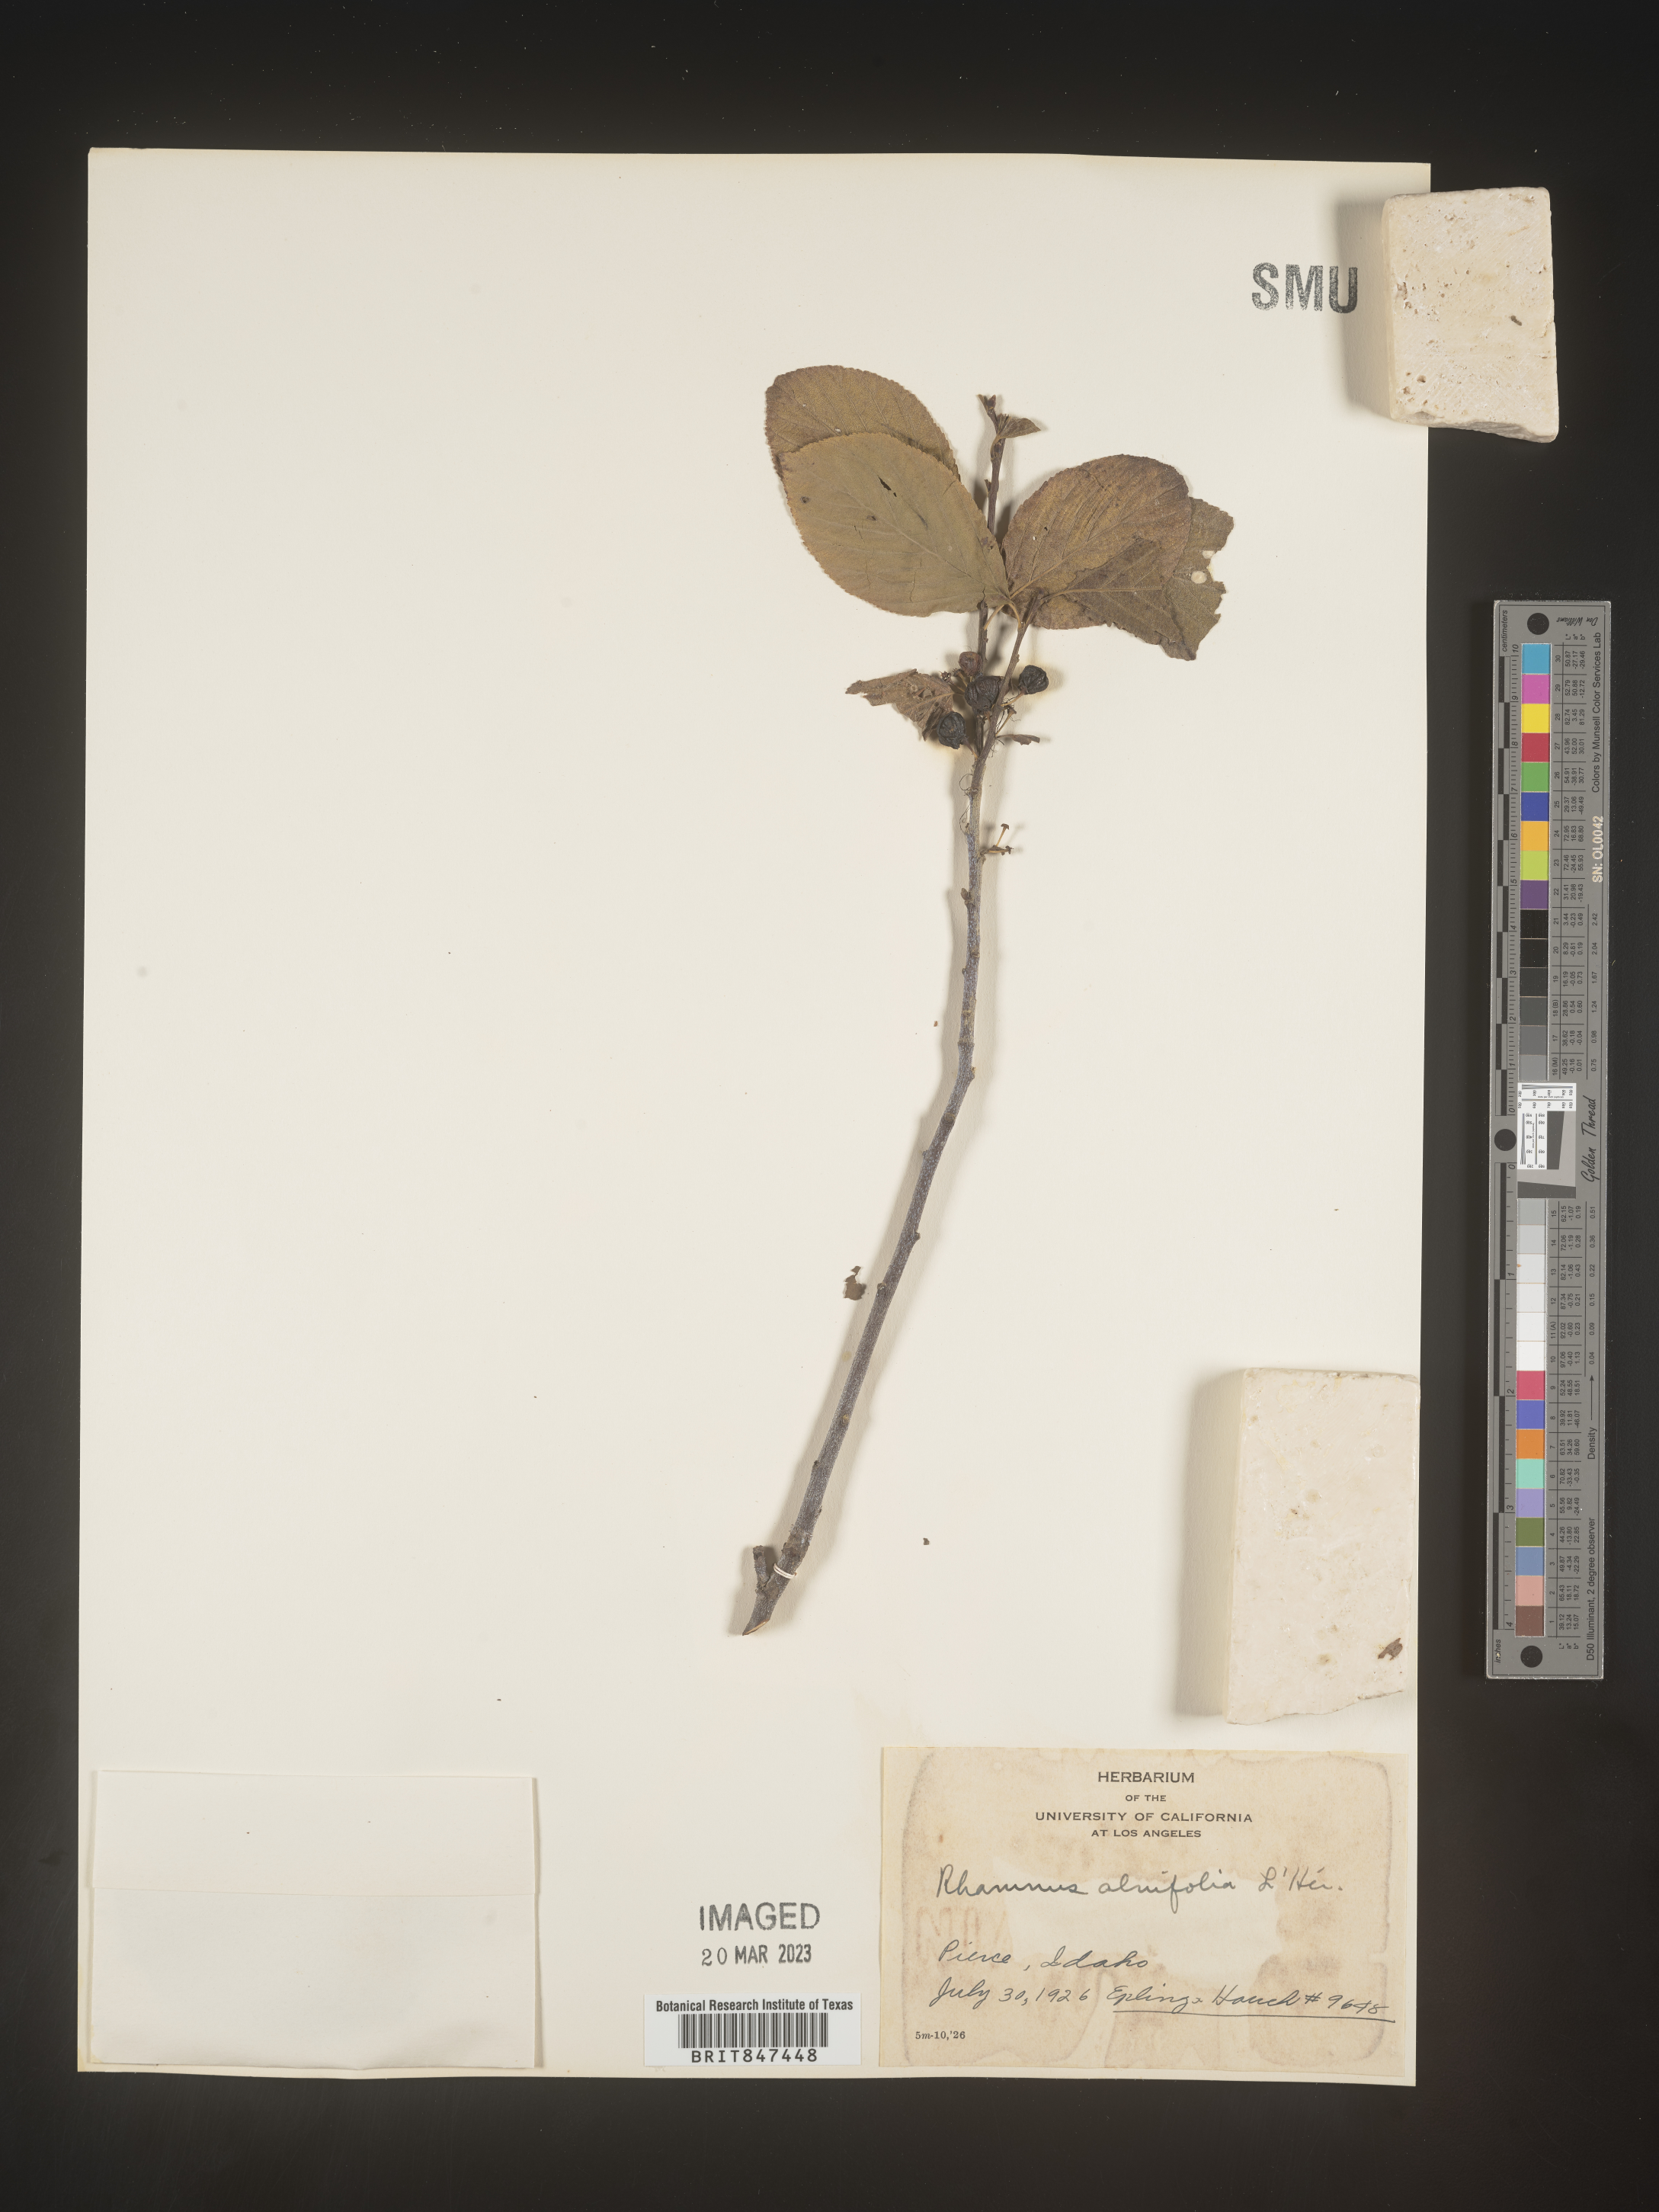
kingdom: Plantae
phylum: Tracheophyta
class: Magnoliopsida
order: Rosales
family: Rhamnaceae
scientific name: Rhamnaceae
